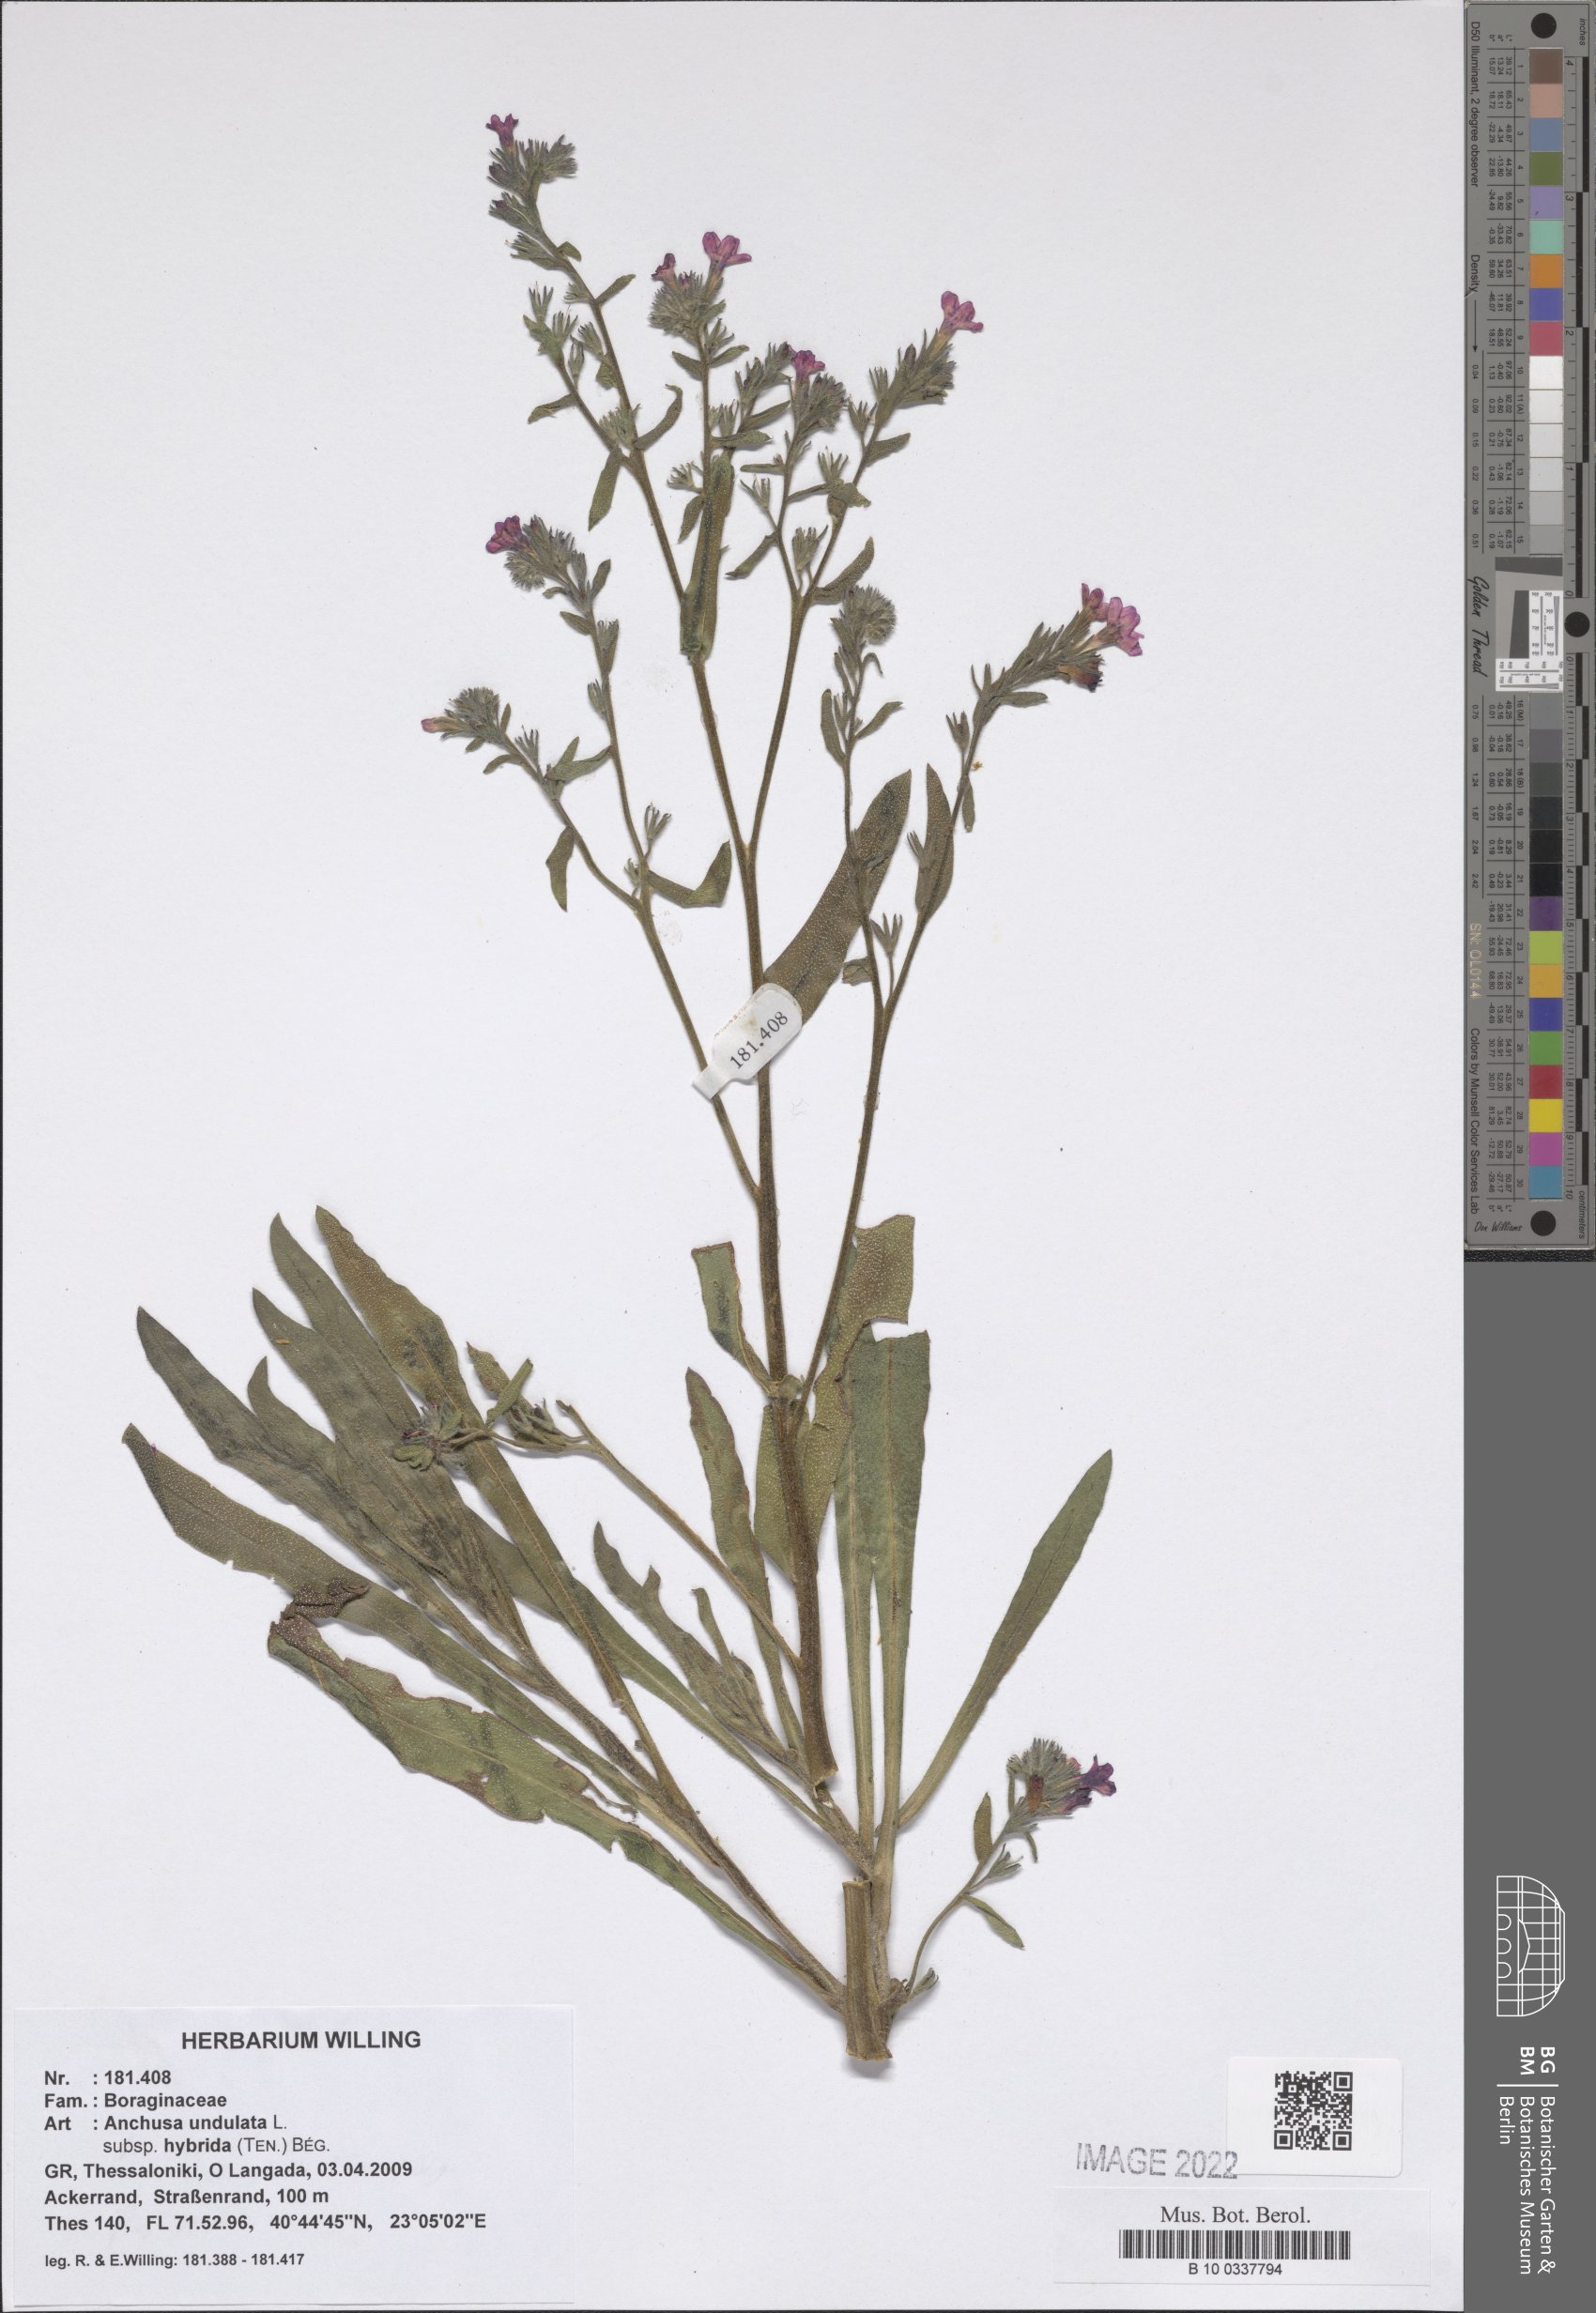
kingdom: Plantae
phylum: Tracheophyta
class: Magnoliopsida
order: Boraginales
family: Boraginaceae
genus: Anchusa
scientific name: Anchusa undulata
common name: Undulate alkanet
